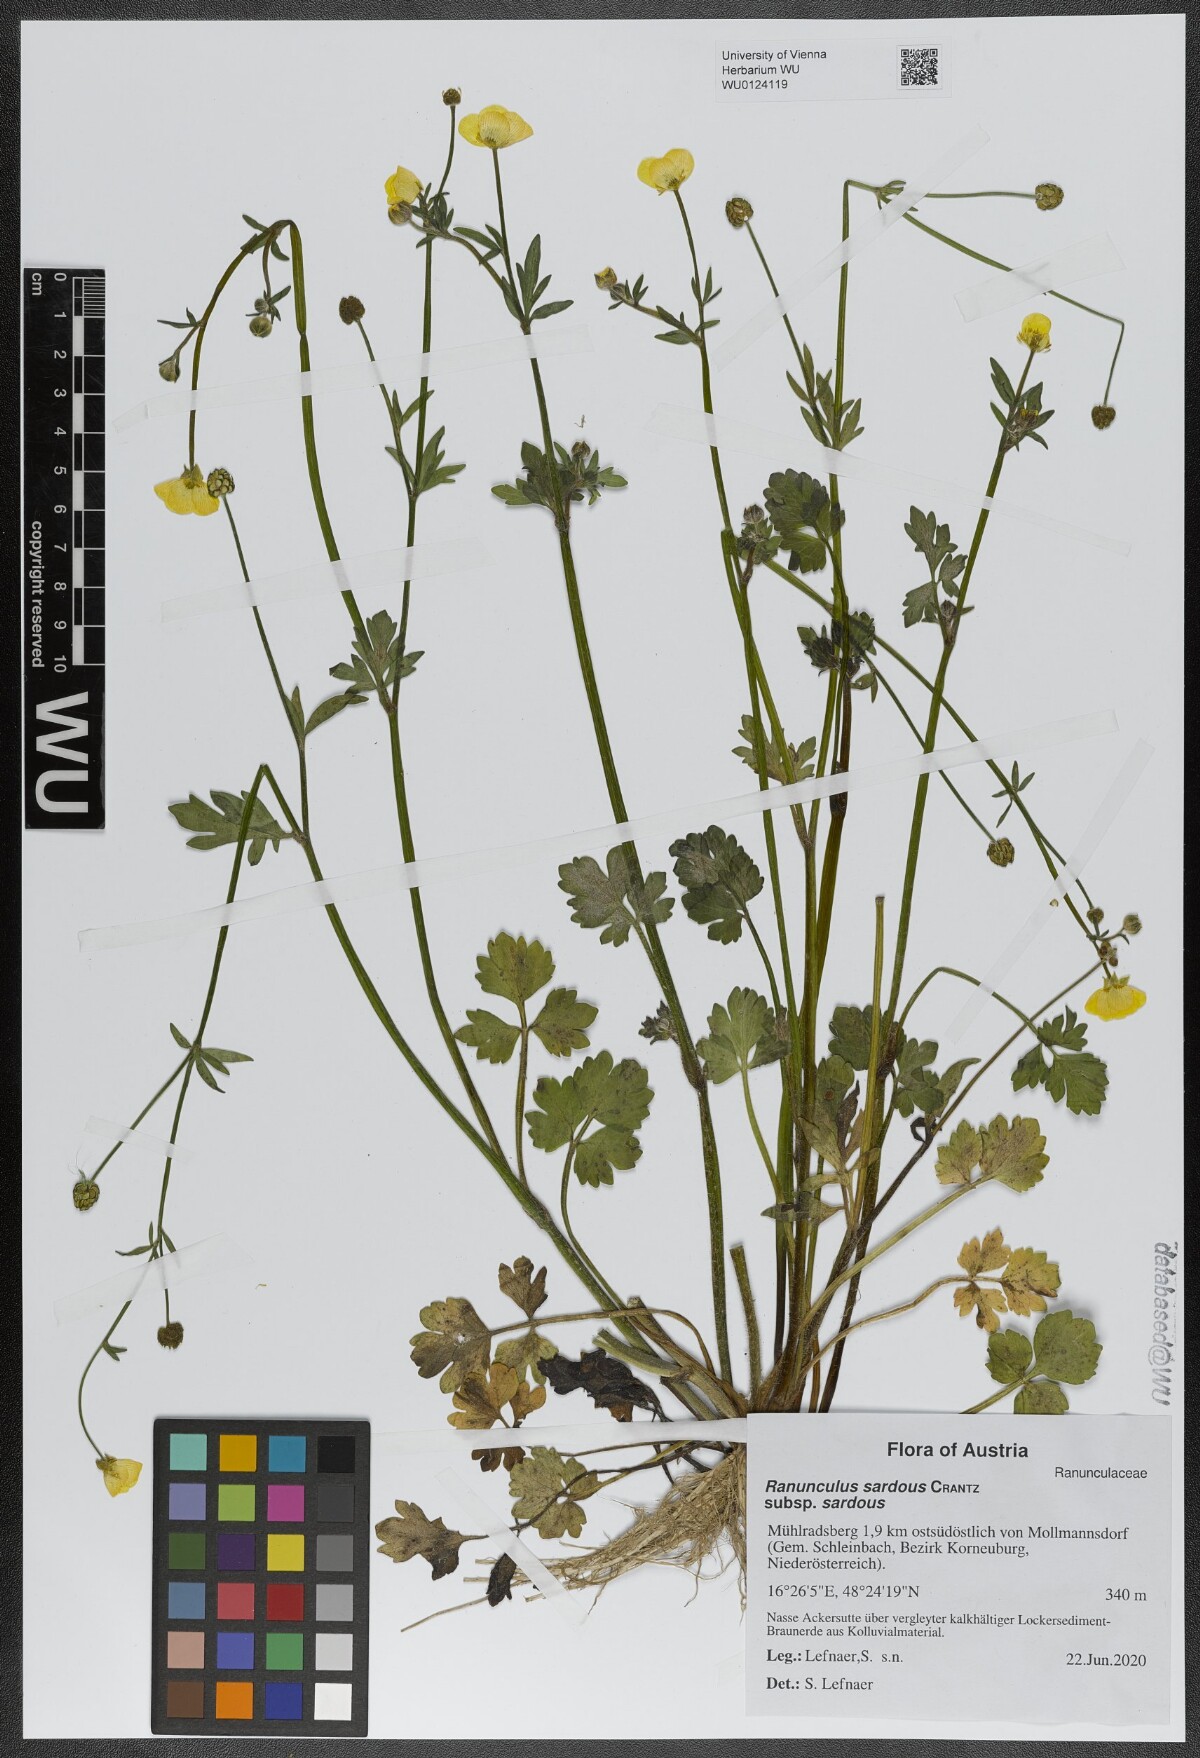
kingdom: Plantae
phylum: Tracheophyta
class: Magnoliopsida
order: Ranunculales
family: Ranunculaceae
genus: Ranunculus
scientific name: Ranunculus sardous
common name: Hairy buttercup
